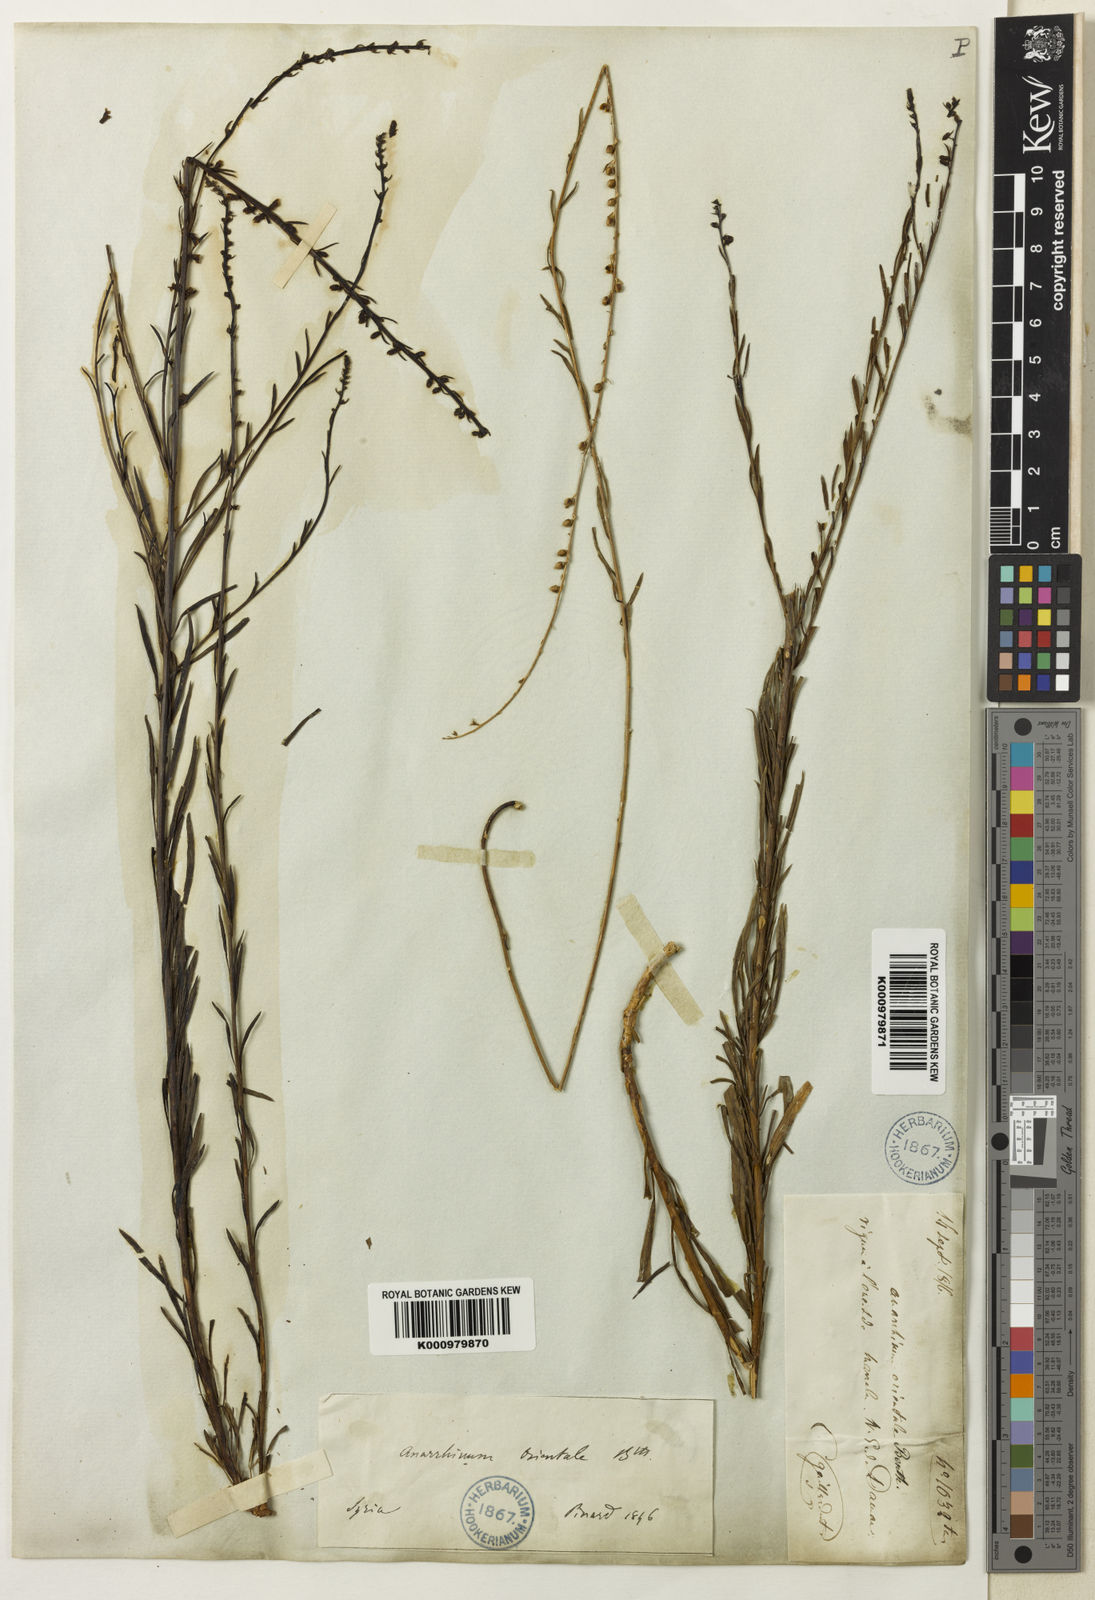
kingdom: Plantae
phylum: Tracheophyta
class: Magnoliopsida
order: Lamiales
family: Plantaginaceae
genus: Anarrhinum
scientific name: Anarrhinum forskaohlii
